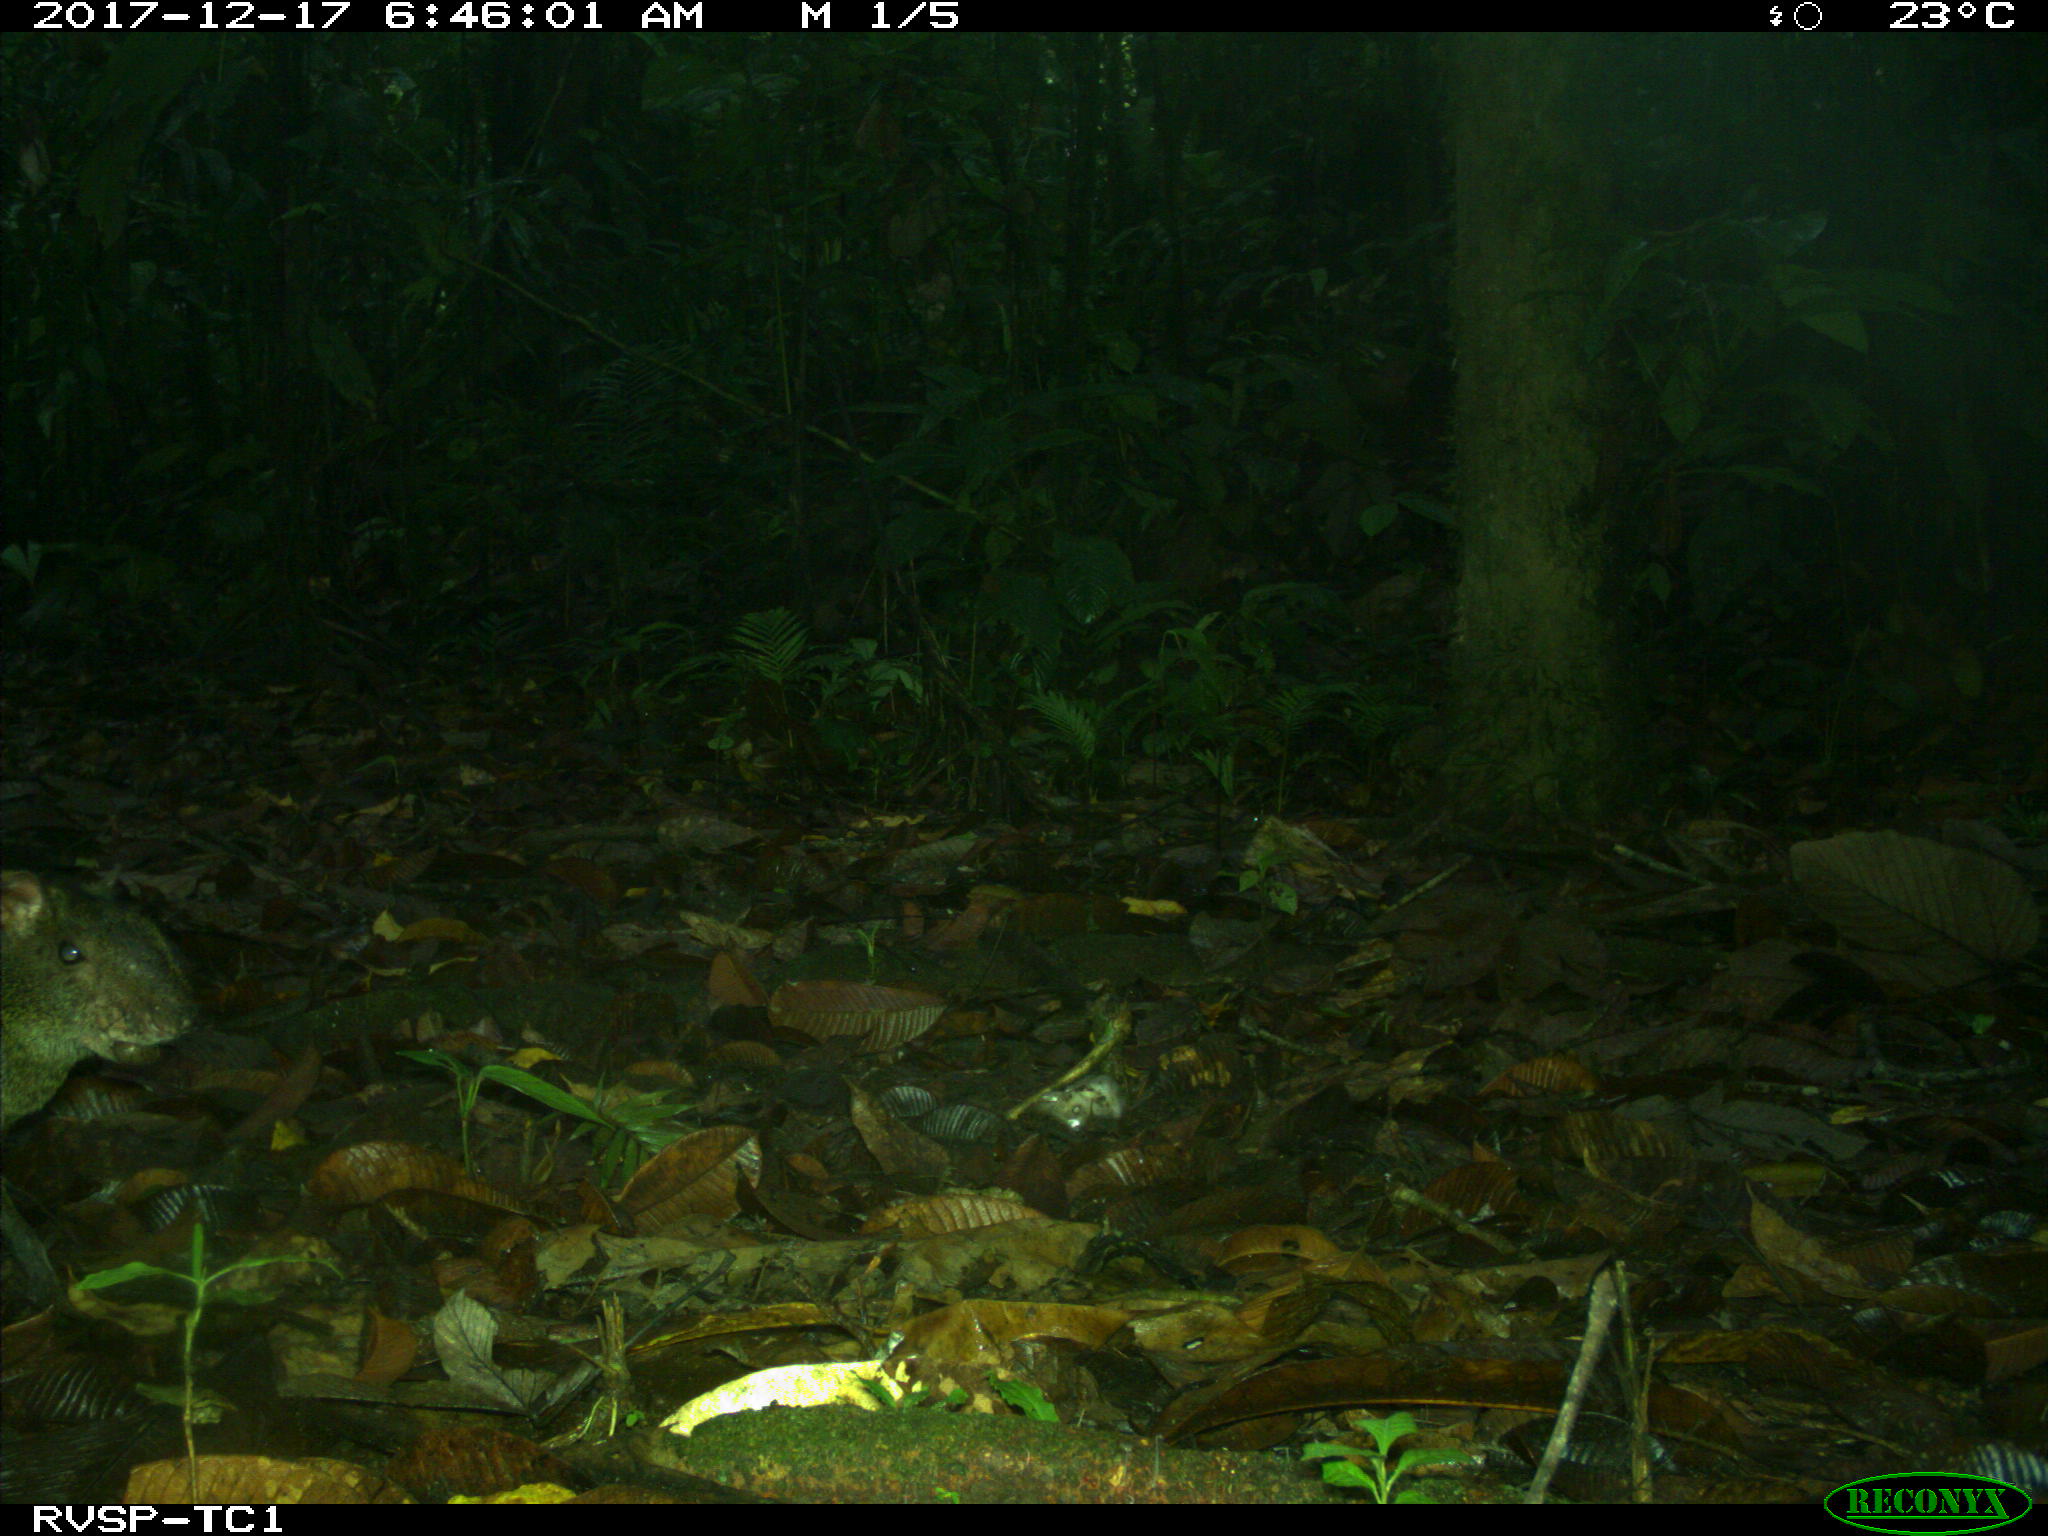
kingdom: Animalia
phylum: Chordata
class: Mammalia
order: Rodentia
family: Dasyproctidae
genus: Dasyprocta
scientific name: Dasyprocta punctata
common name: Central american agouti
